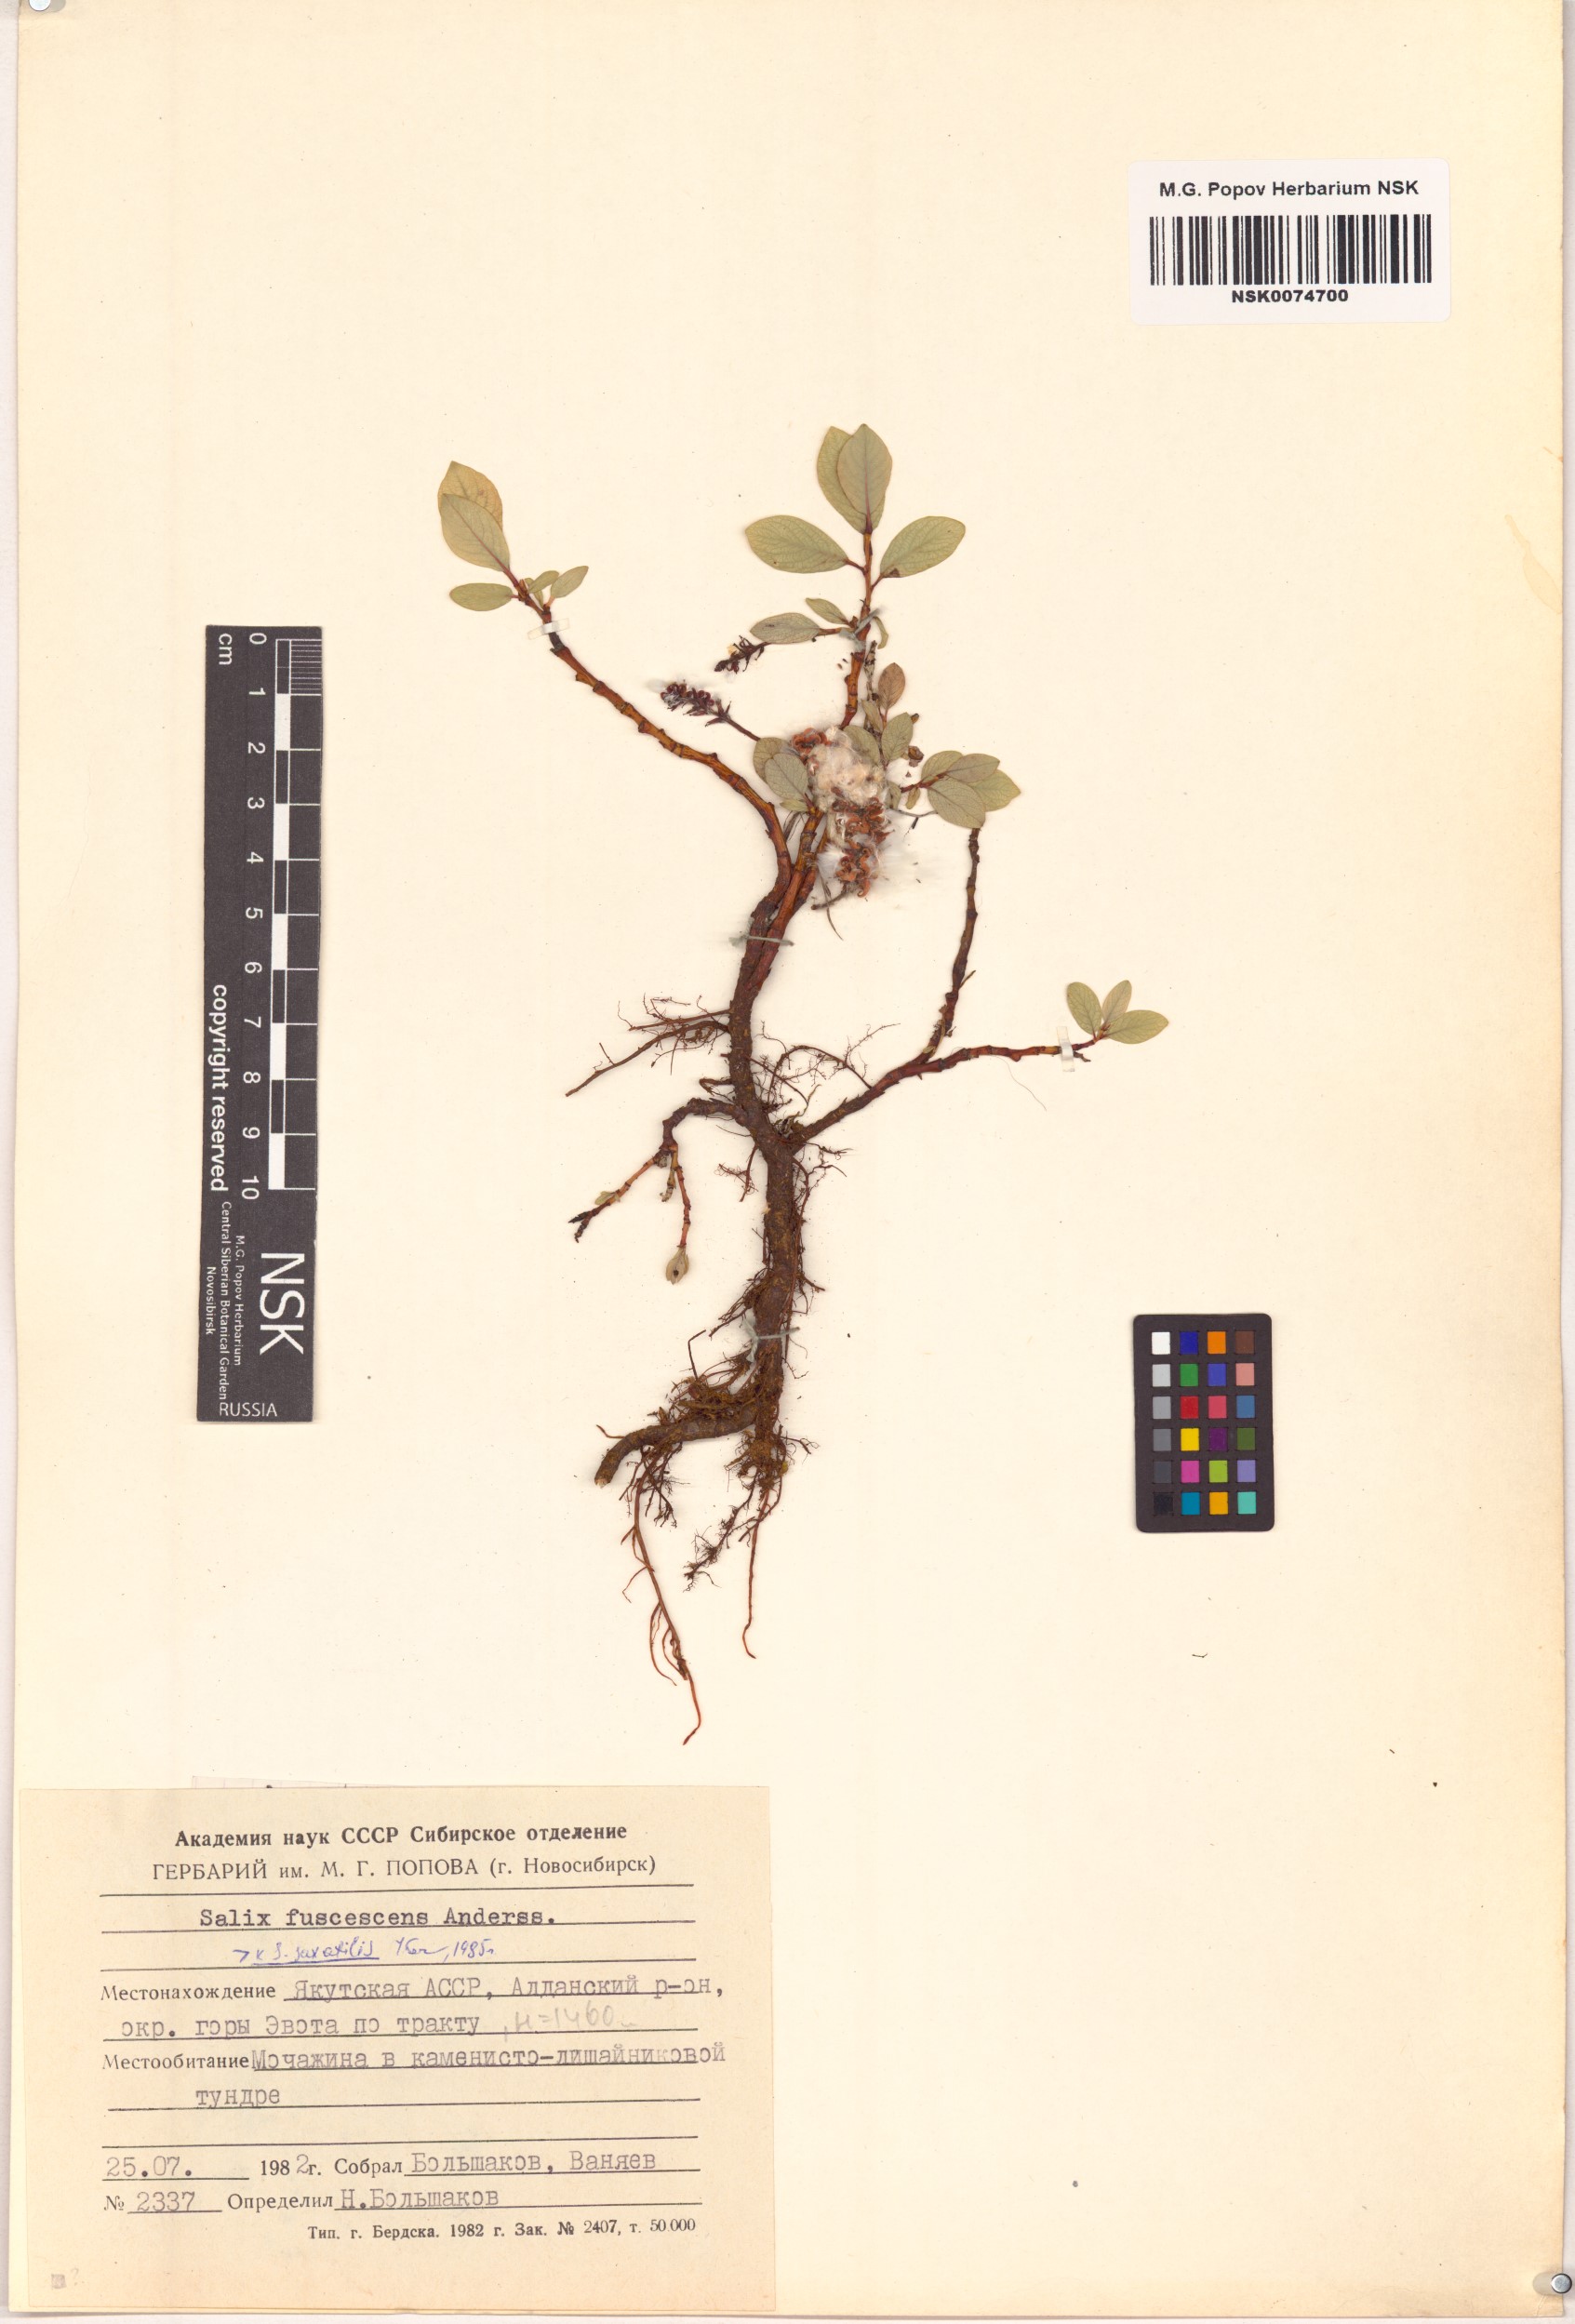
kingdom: Plantae
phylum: Tracheophyta
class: Magnoliopsida
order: Malpighiales
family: Salicaceae
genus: Salix
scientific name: Salix fuscescens
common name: Brownish willow
